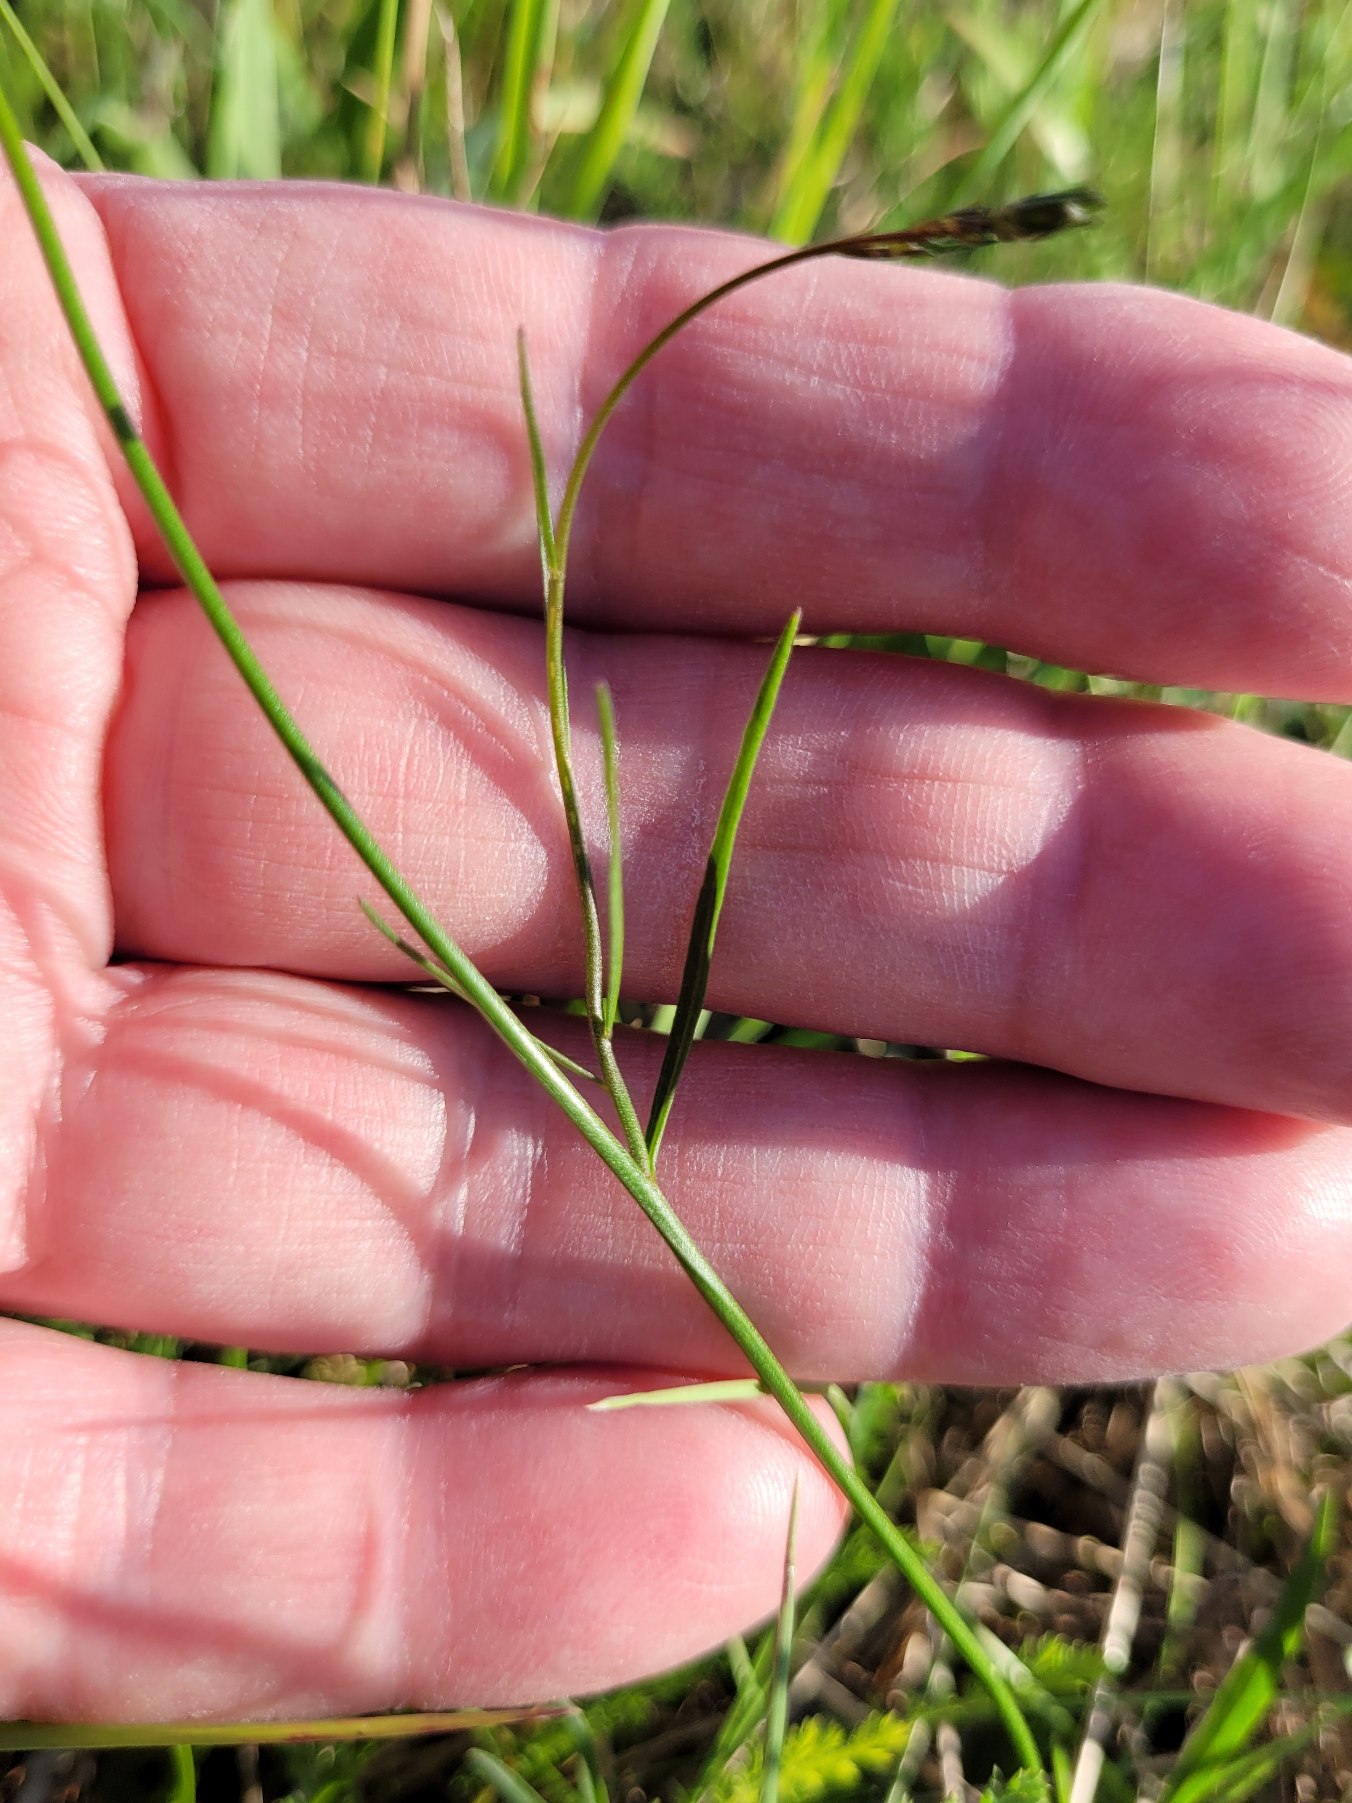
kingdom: Plantae
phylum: Tracheophyta
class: Magnoliopsida
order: Asterales
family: Campanulaceae
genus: Campanula
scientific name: Campanula rotundifolia
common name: Liden klokke
